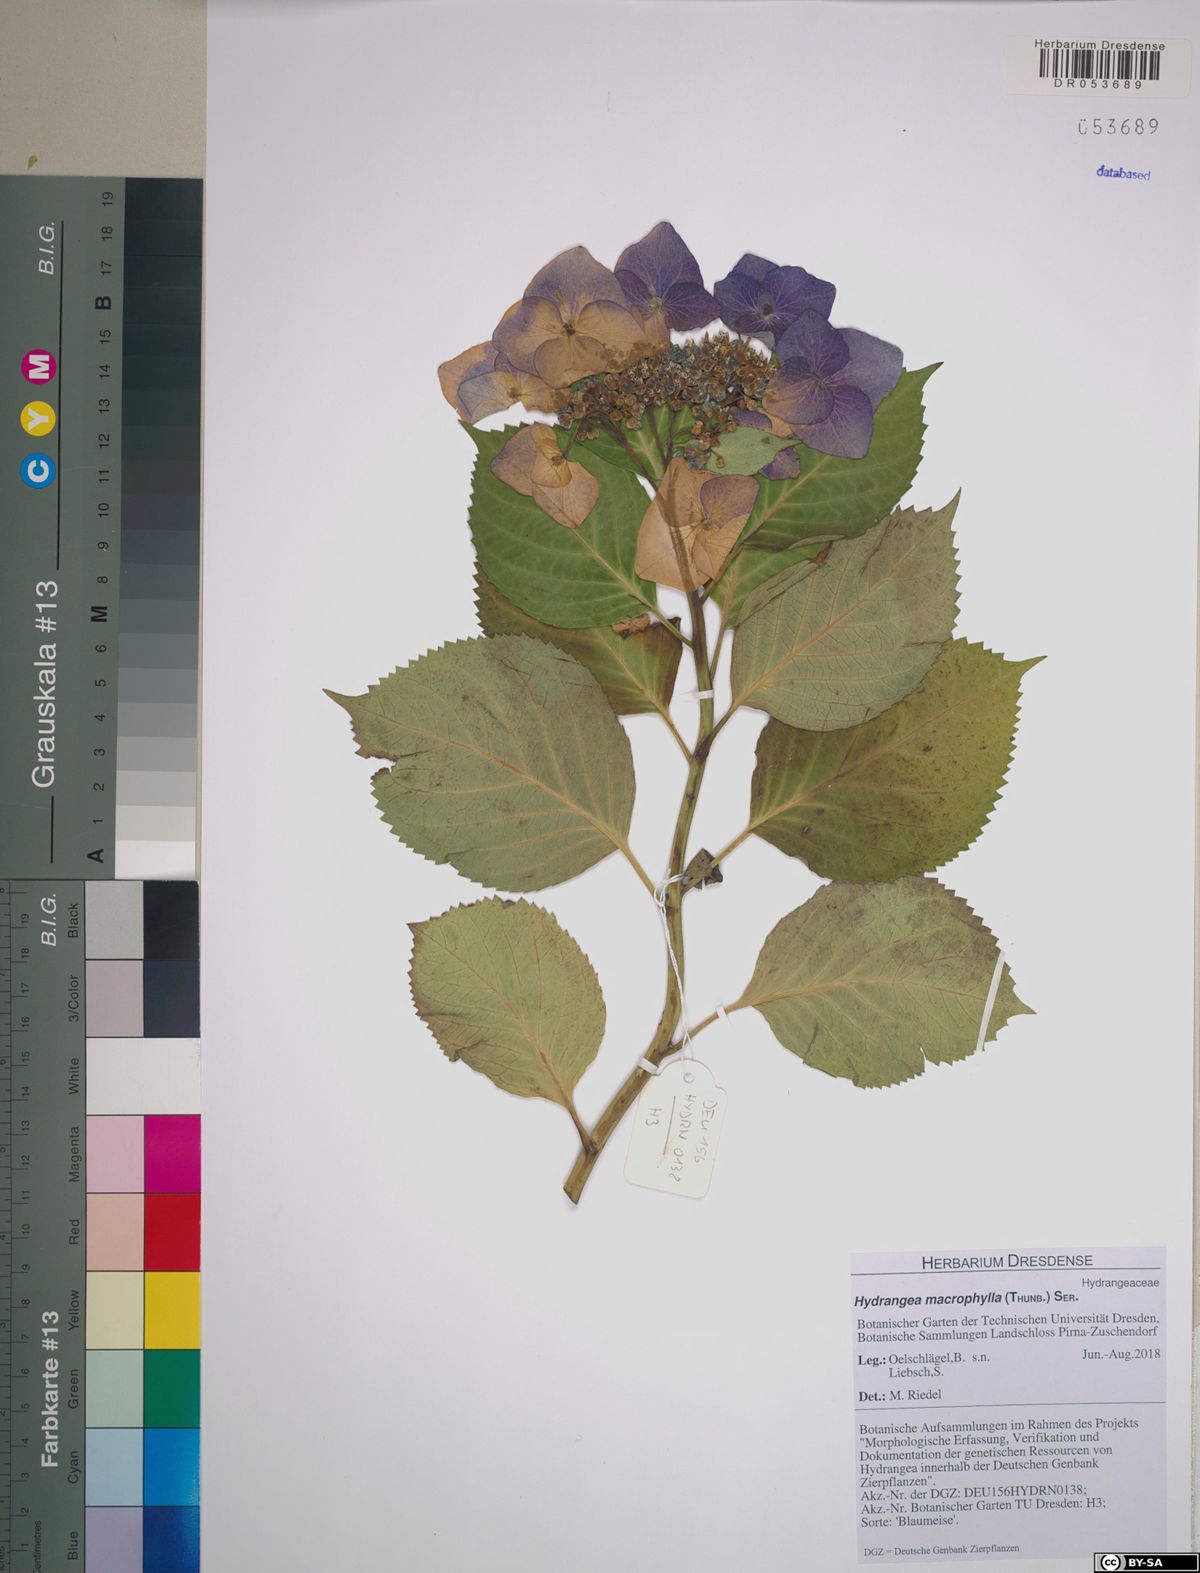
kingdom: Plantae
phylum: Tracheophyta
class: Magnoliopsida
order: Cornales
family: Hydrangeaceae
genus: Hydrangea
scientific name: Hydrangea macrophylla
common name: Hydrangea
